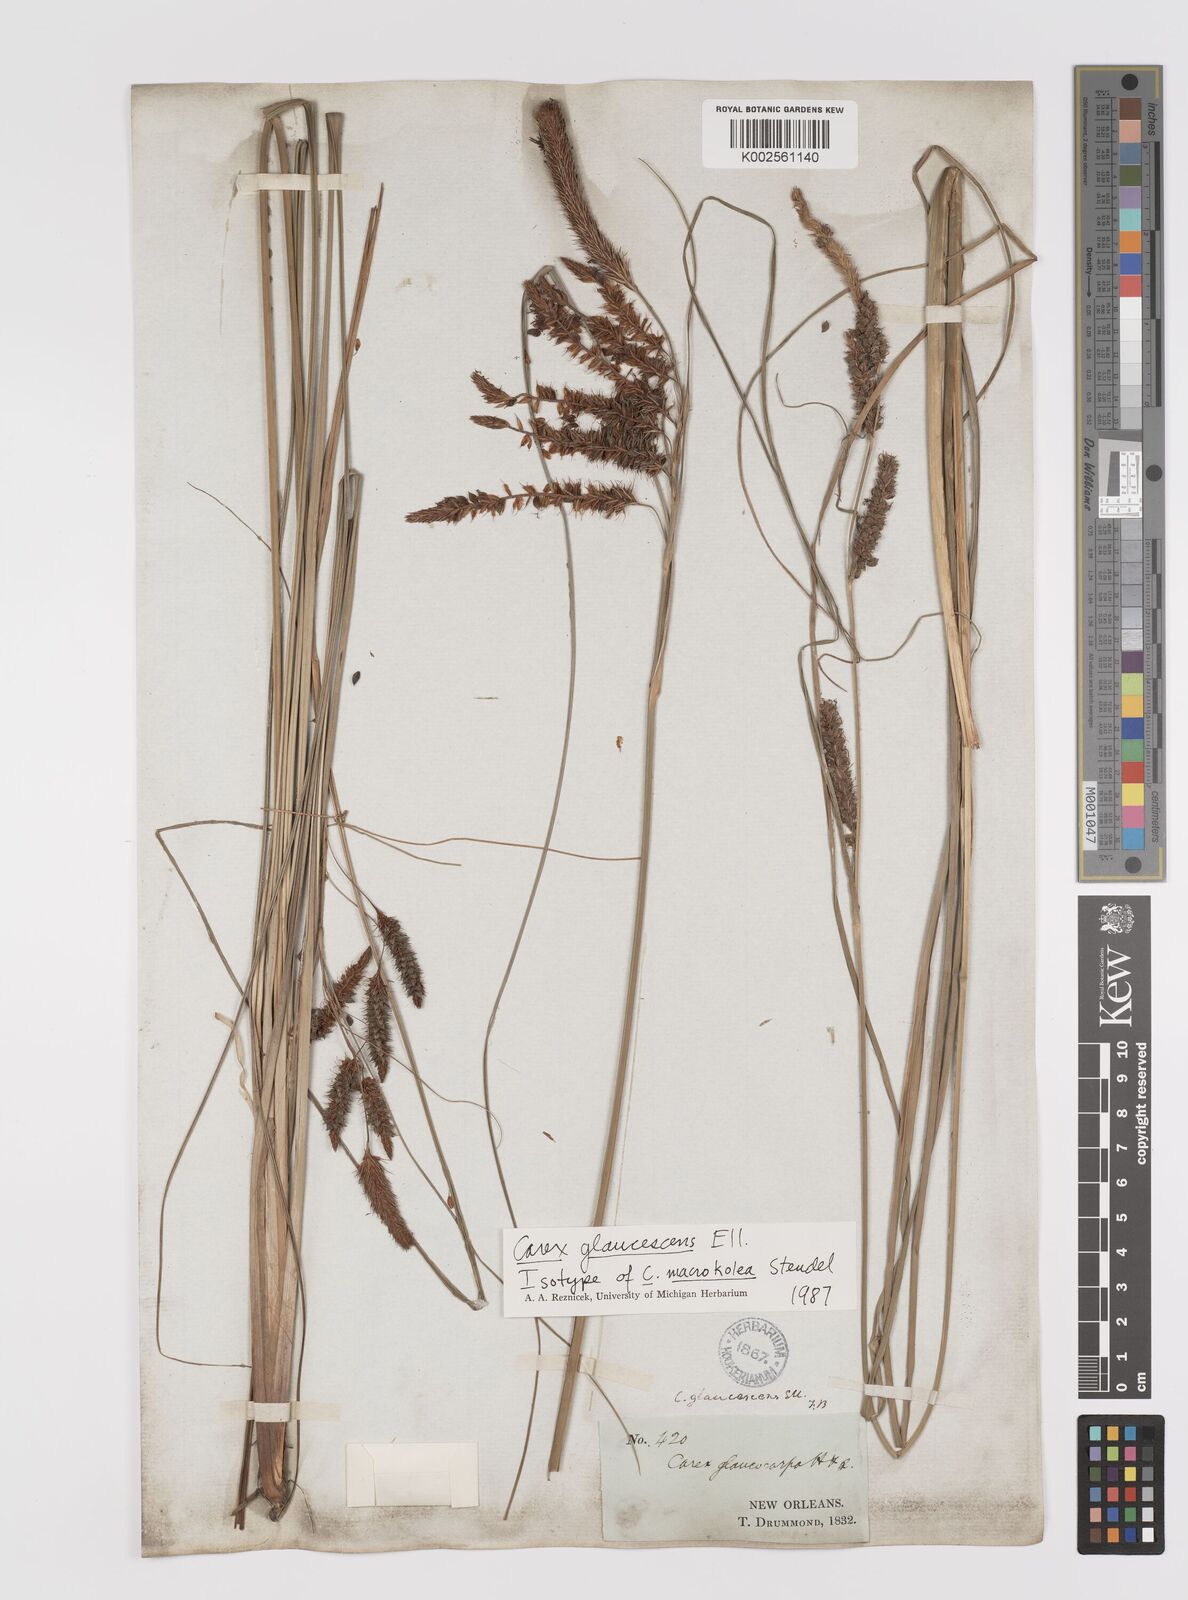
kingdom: Plantae
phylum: Tracheophyta
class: Liliopsida
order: Poales
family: Cyperaceae
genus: Carex
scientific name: Carex glaucescens
